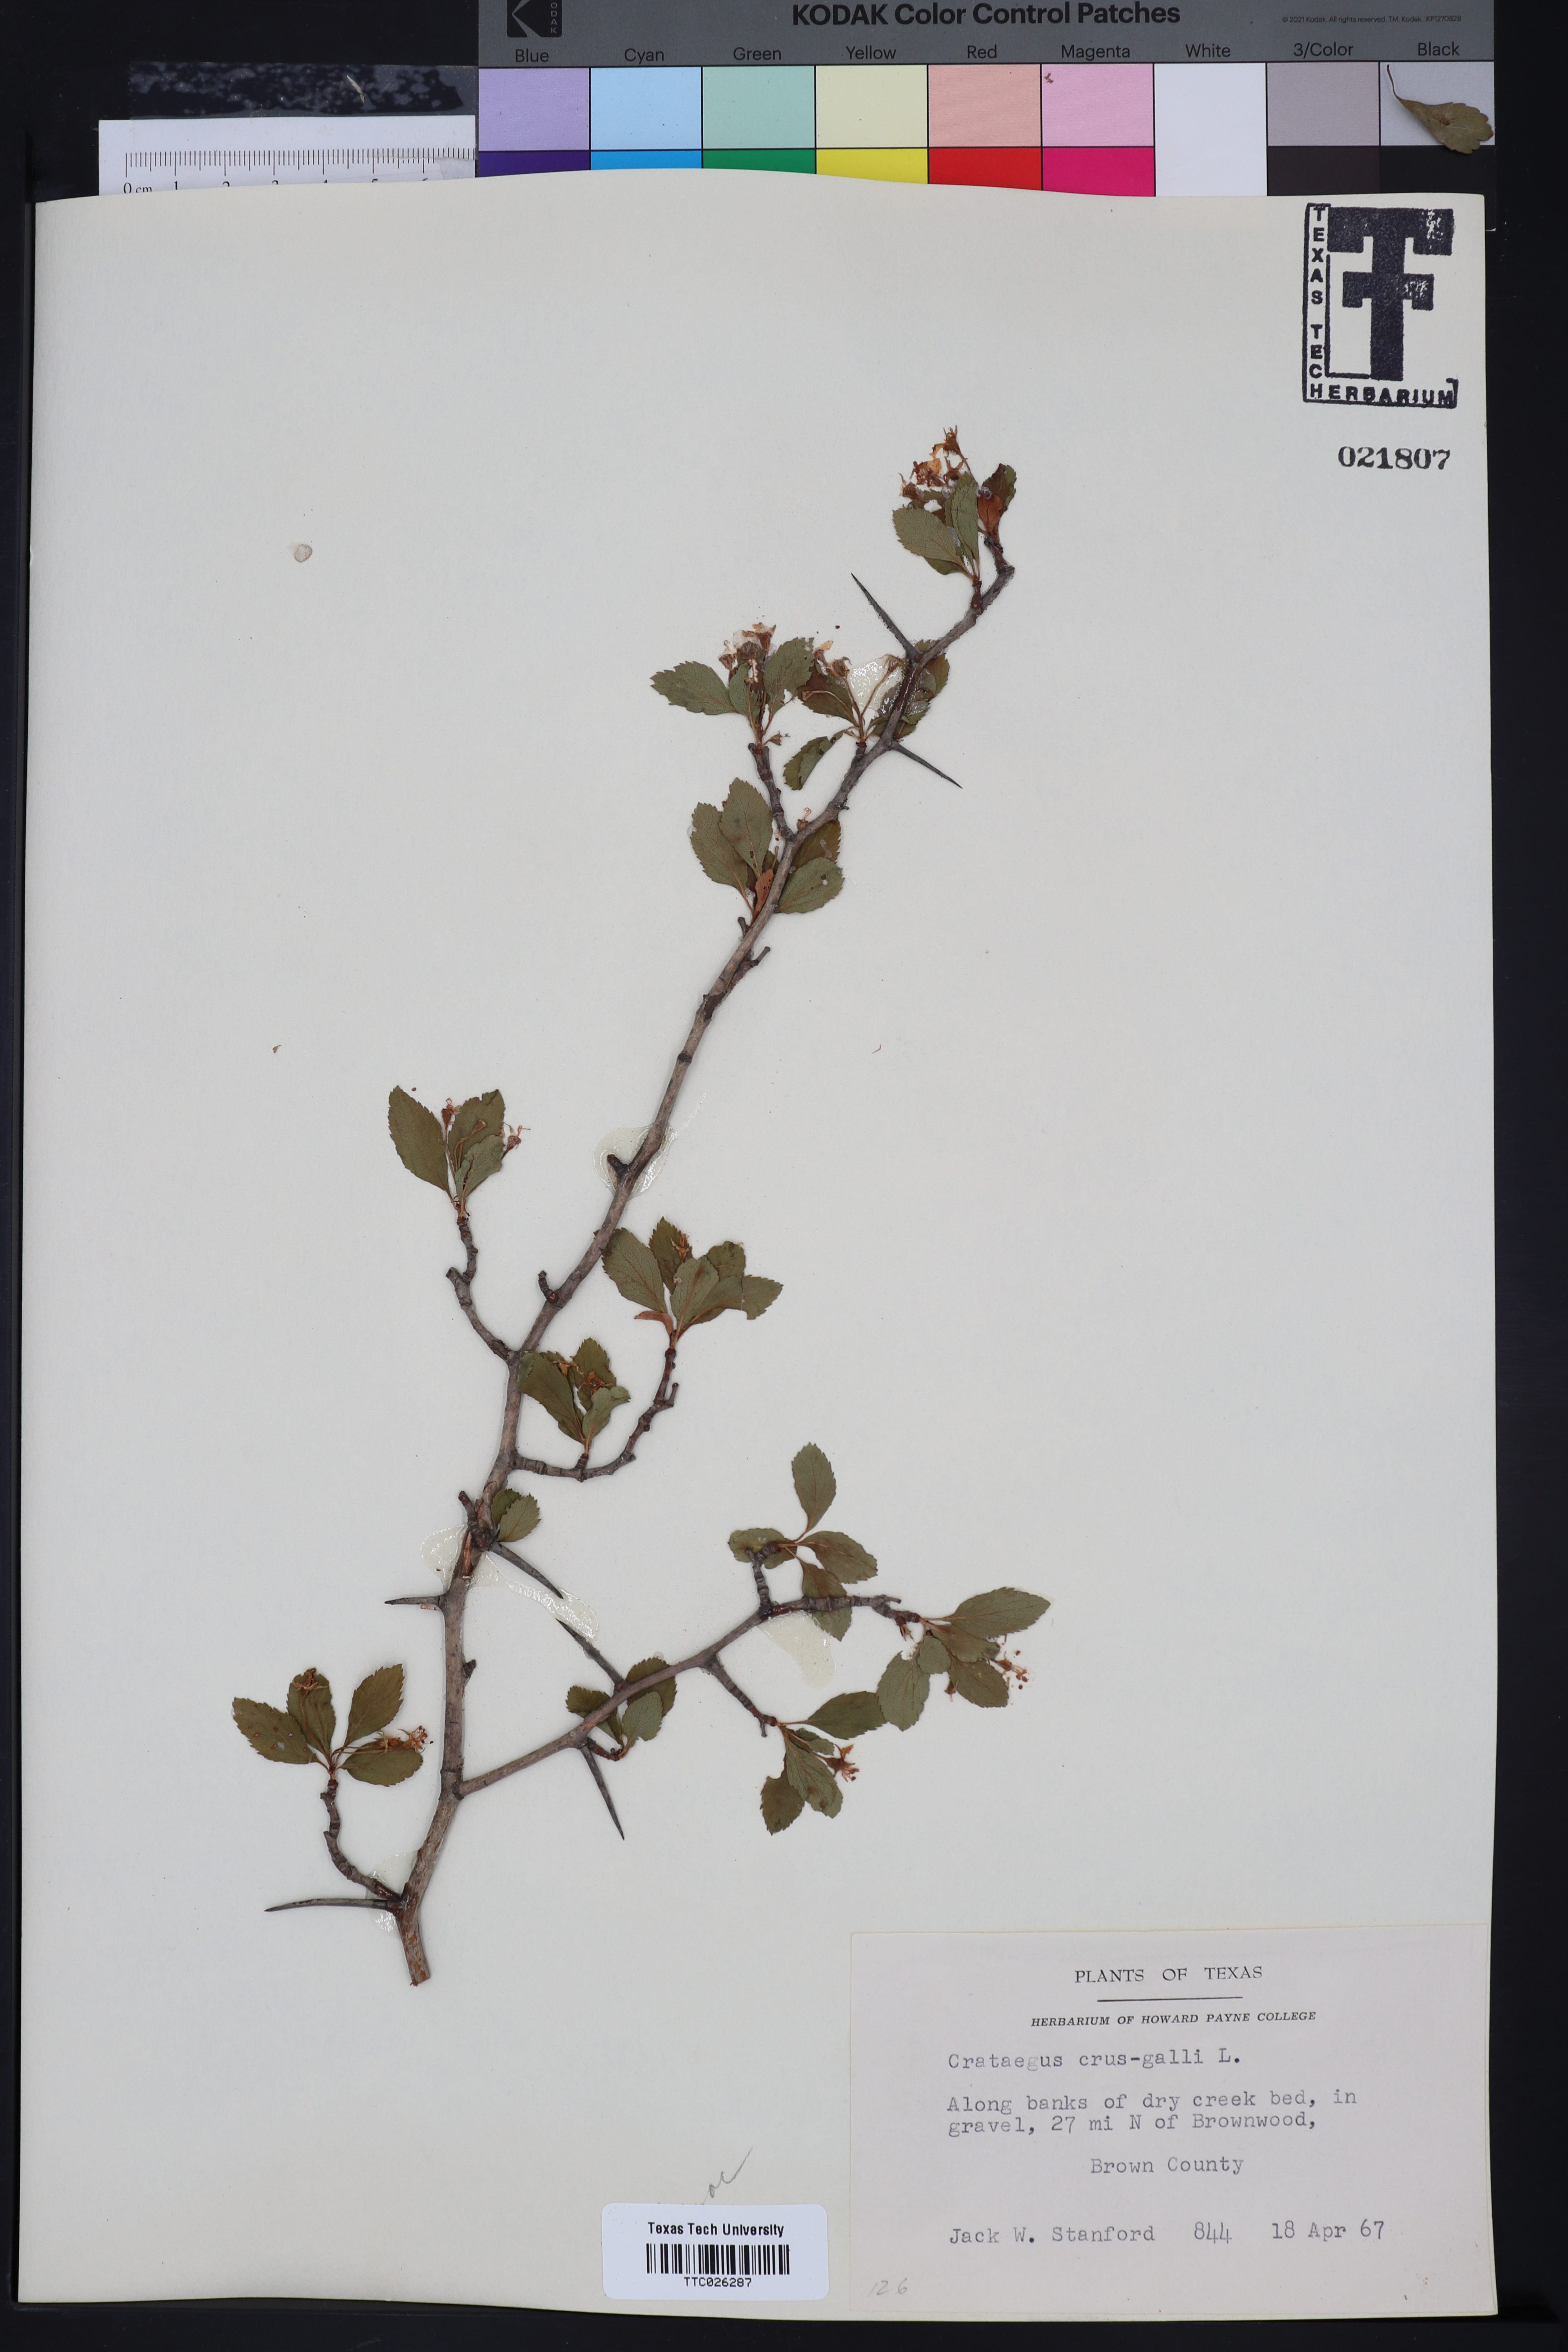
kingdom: Plantae
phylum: Tracheophyta
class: Magnoliopsida
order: Rosales
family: Rosaceae
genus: Crataegus
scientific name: Crataegus crus-galli
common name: Cockspurthorn
